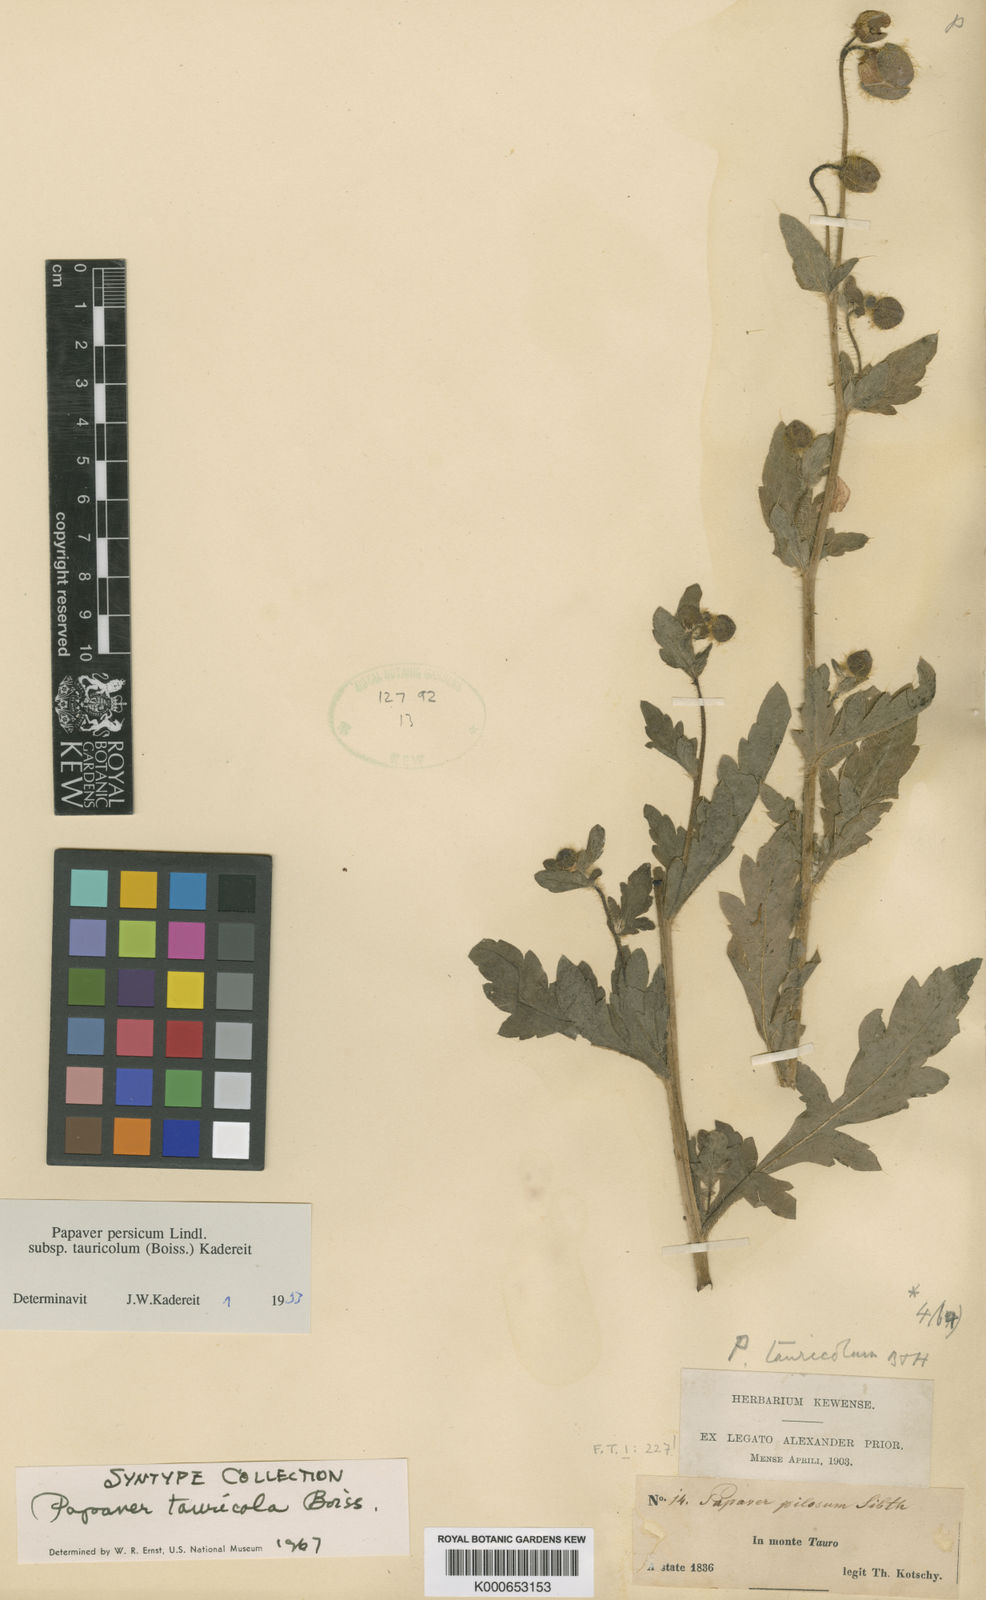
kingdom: Plantae
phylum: Tracheophyta
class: Magnoliopsida
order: Ranunculales
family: Papaveraceae
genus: Papaver
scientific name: Papaver persicum
